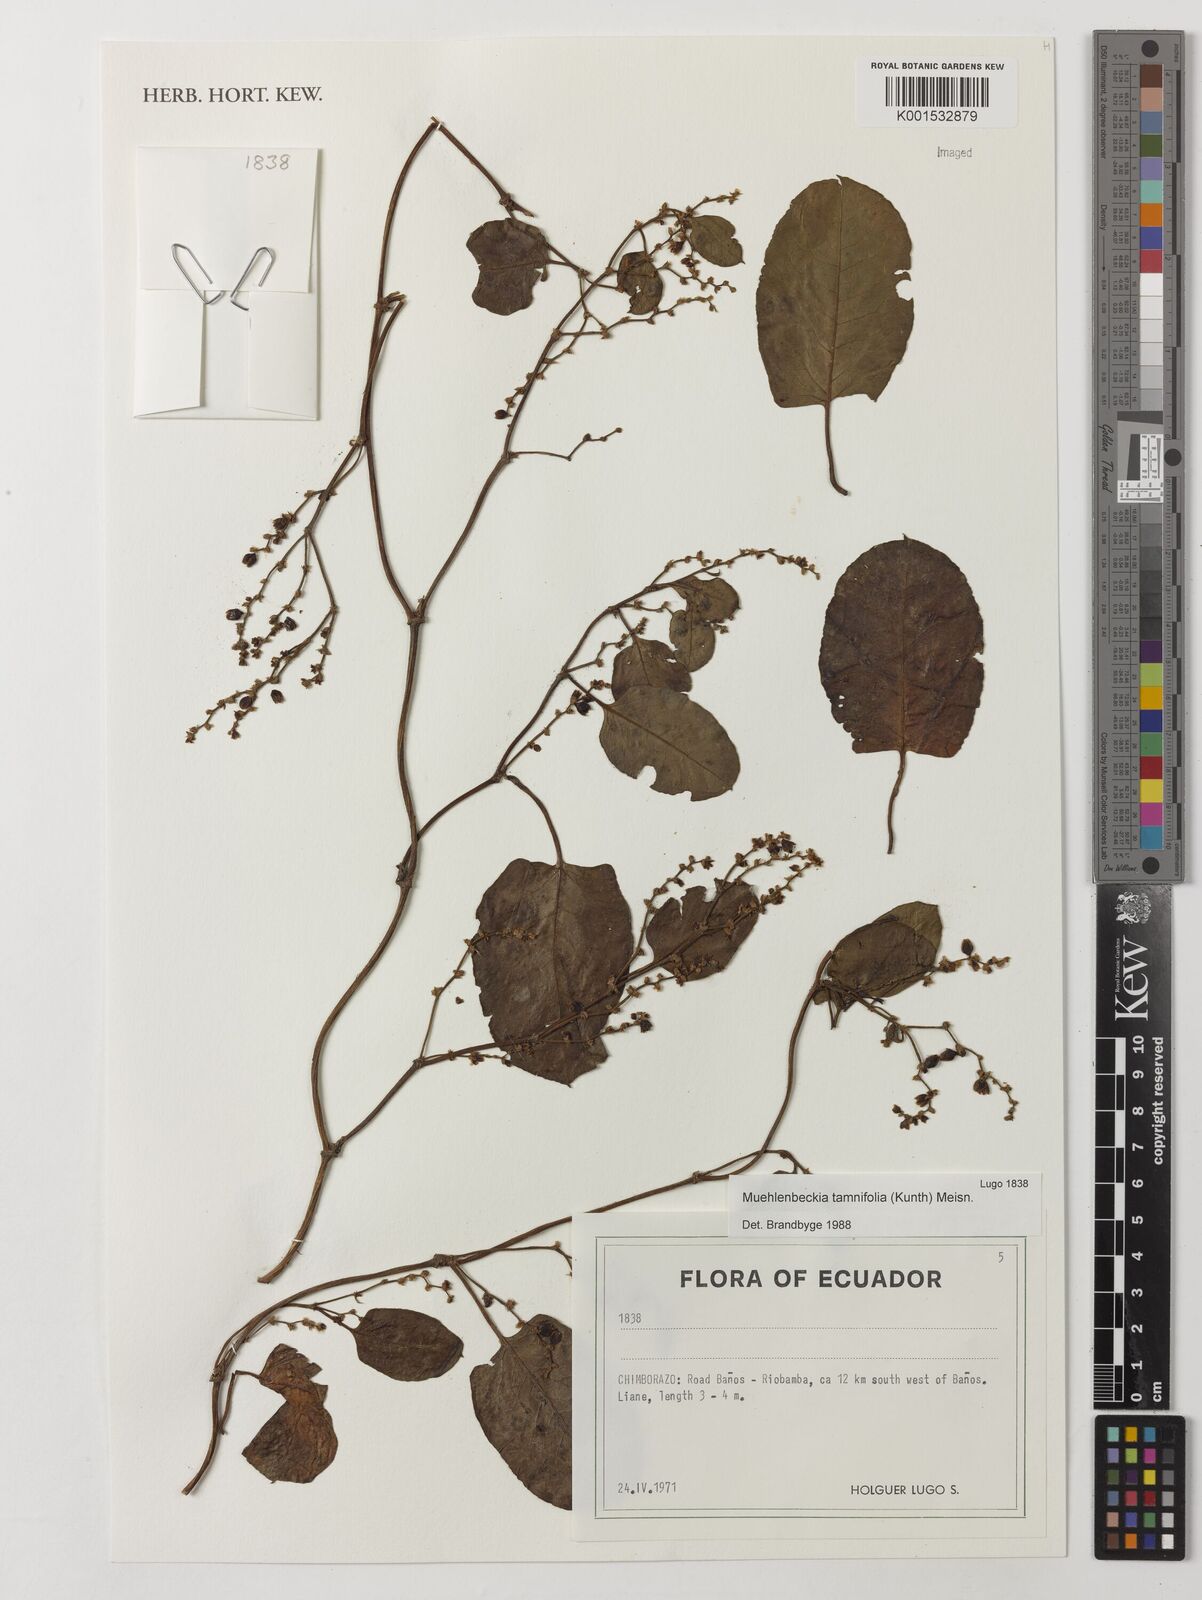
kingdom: Plantae
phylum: Tracheophyta
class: Magnoliopsida
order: Caryophyllales
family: Polygonaceae
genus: Muehlenbeckia
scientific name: Muehlenbeckia tamnifolia
